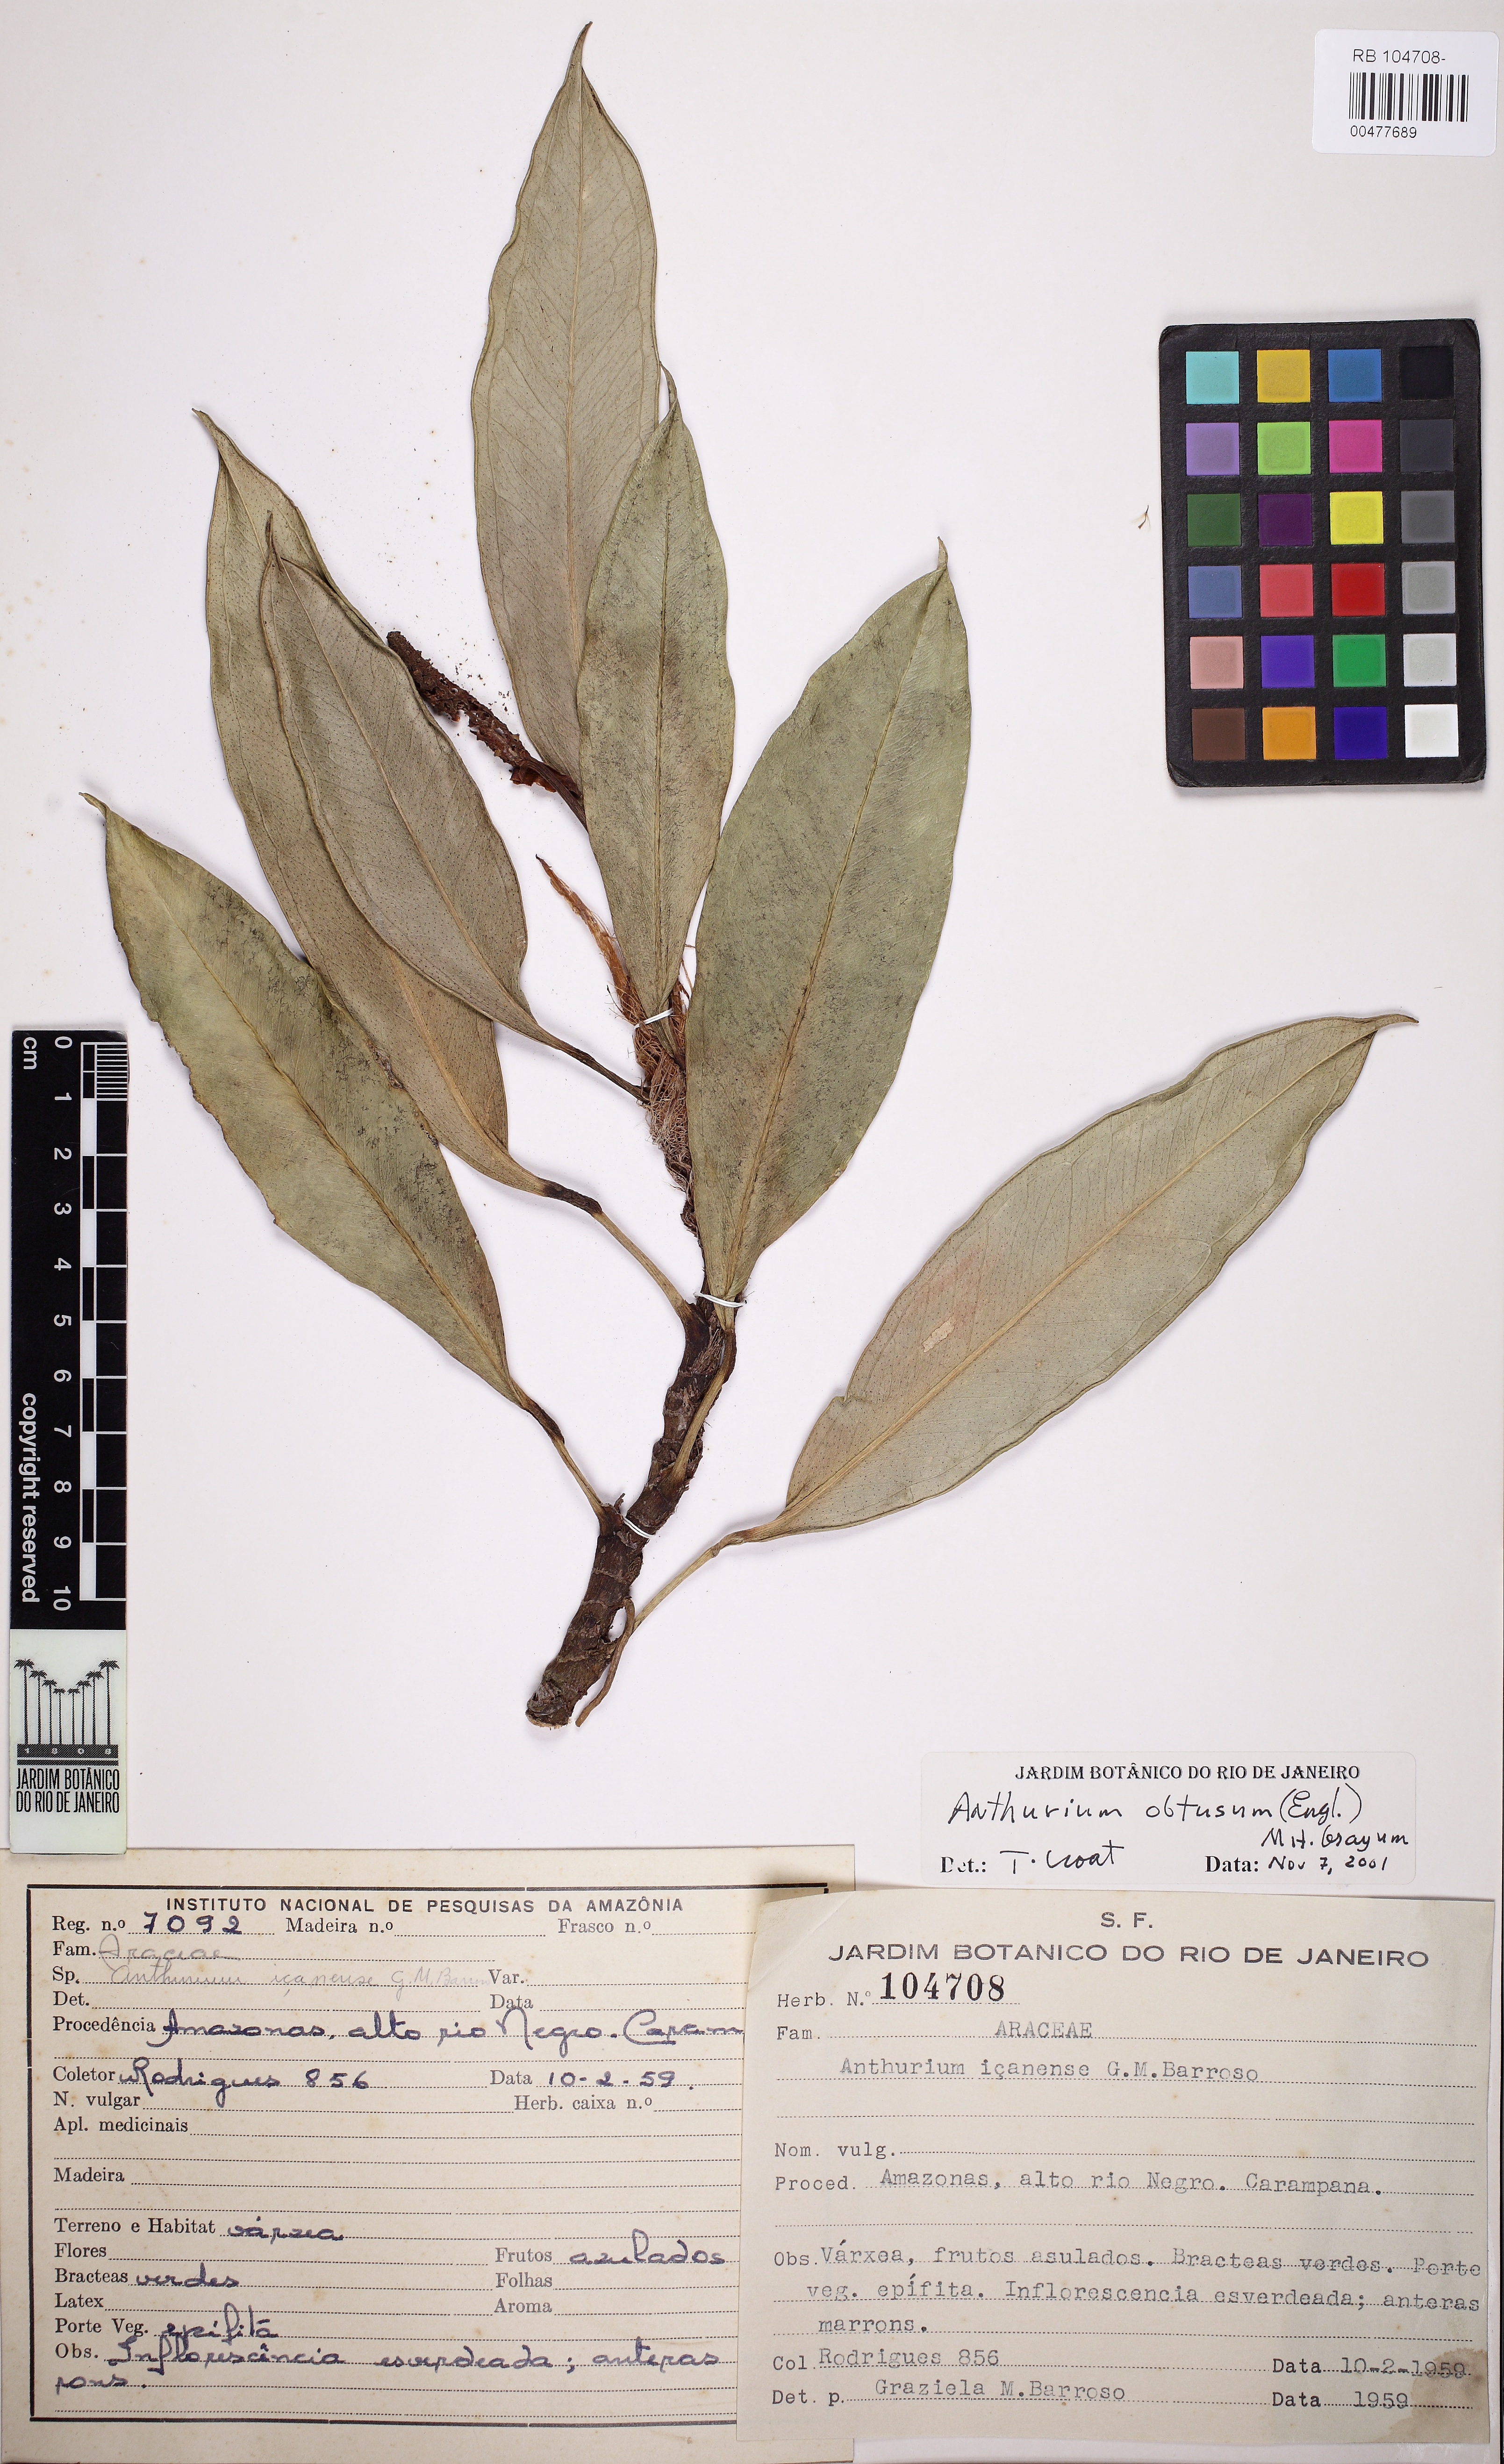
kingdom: Plantae
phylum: Tracheophyta
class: Liliopsida
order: Alismatales
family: Araceae
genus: Anthurium
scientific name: Anthurium obtusum
